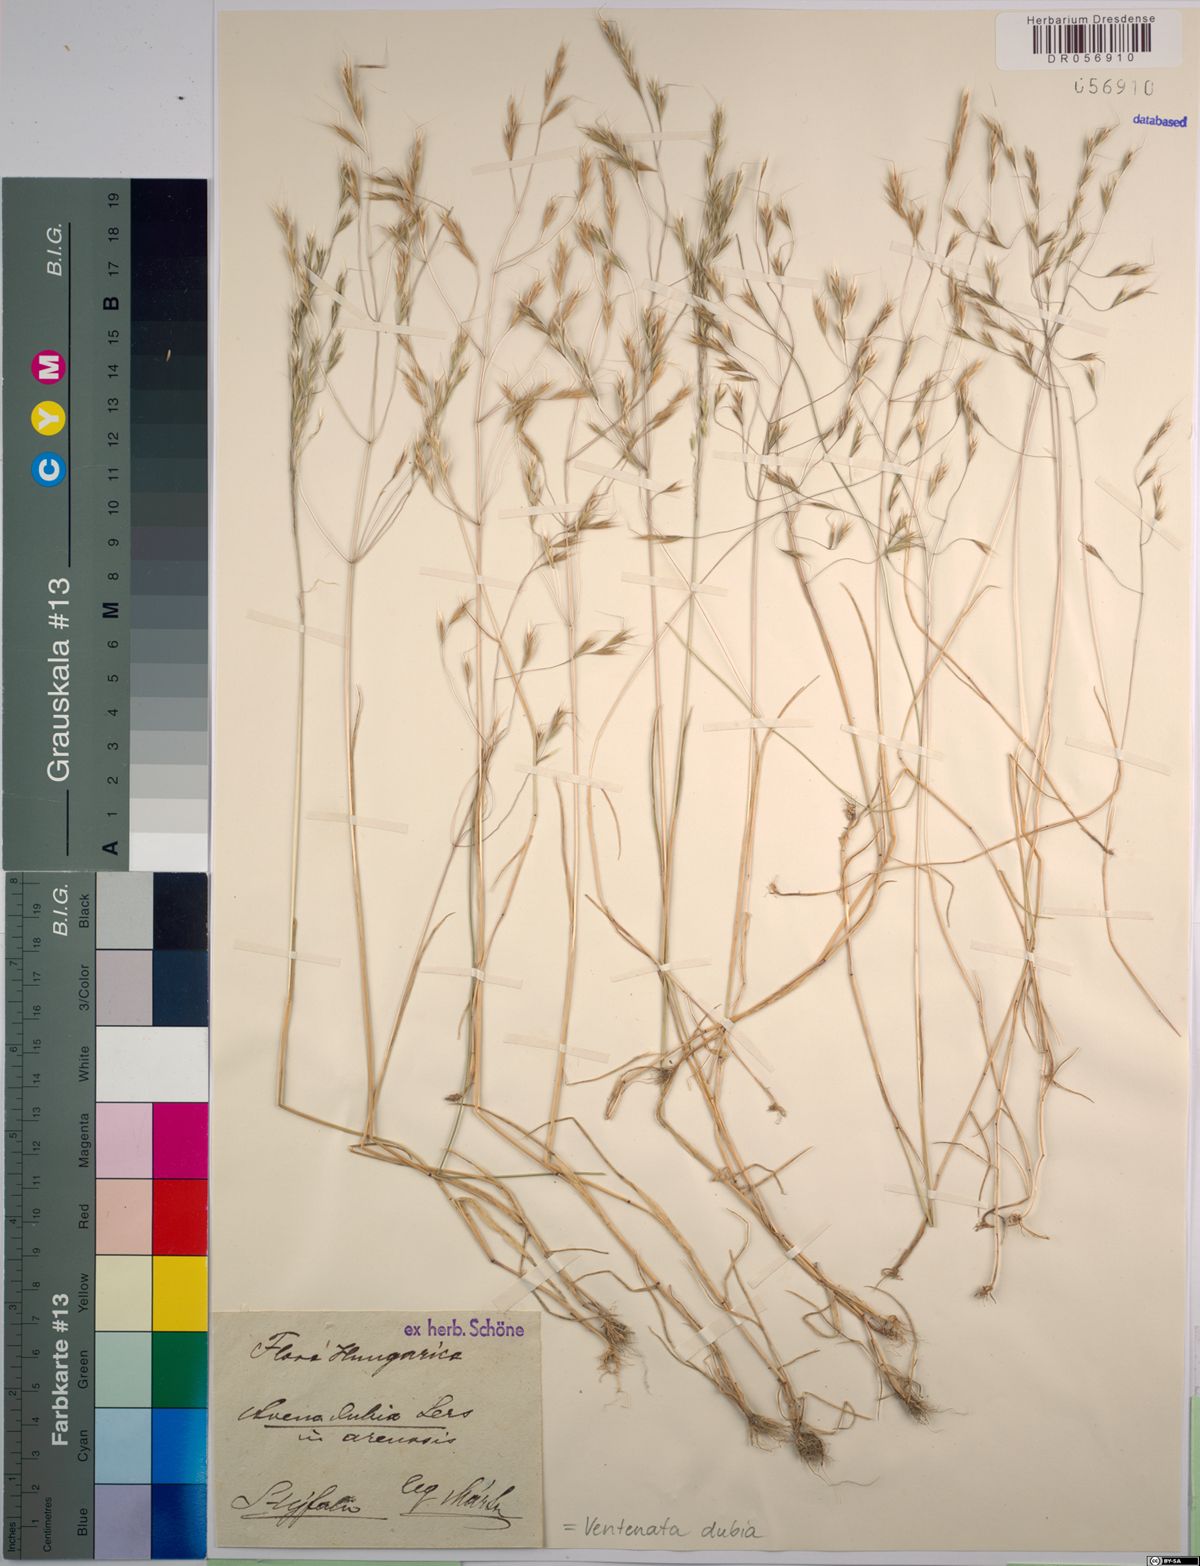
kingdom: Plantae
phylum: Tracheophyta
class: Liliopsida
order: Poales
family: Poaceae
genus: Ventenata
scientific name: Ventenata dubia
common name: North africa grass
